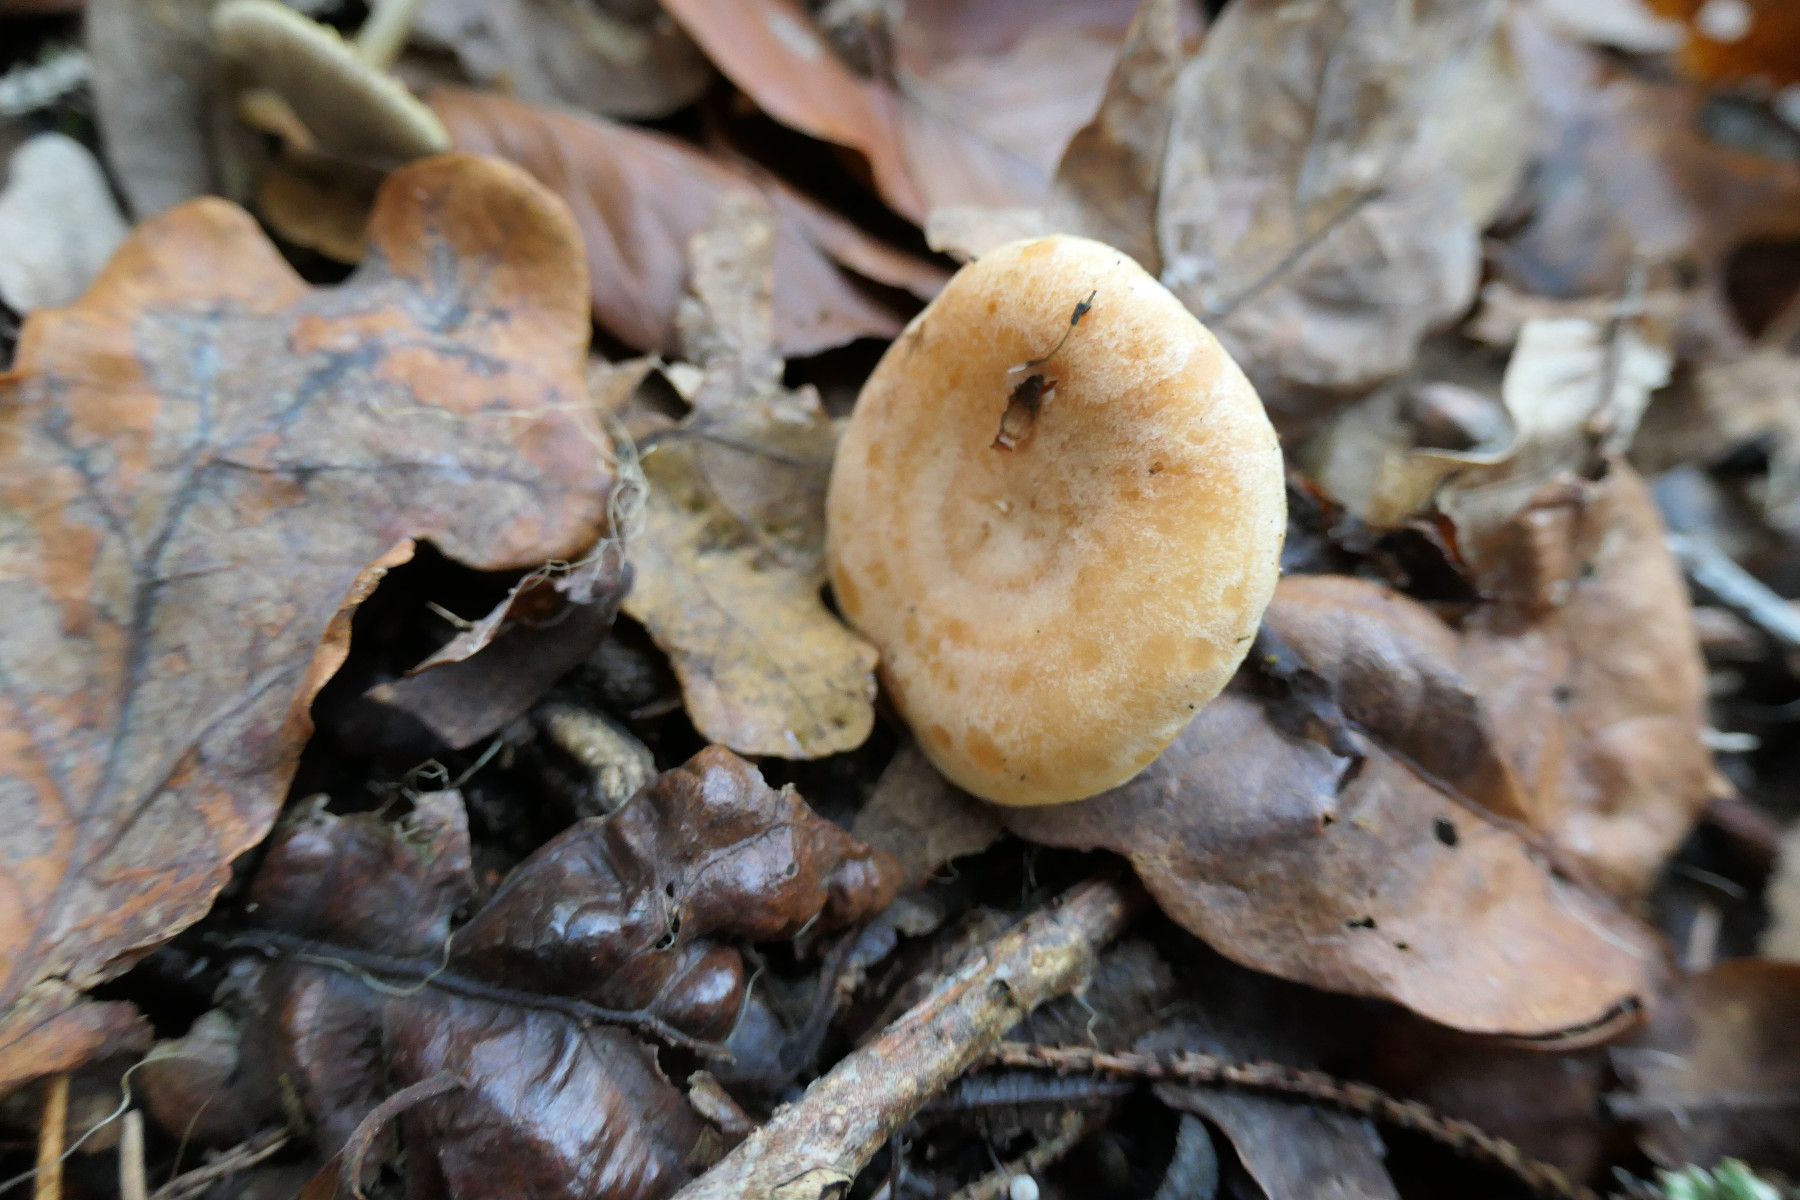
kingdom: Fungi
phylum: Basidiomycota
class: Agaricomycetes
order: Russulales
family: Russulaceae
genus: Lactarius
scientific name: Lactarius chrysorrheus
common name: svovlmælket mælkehat
